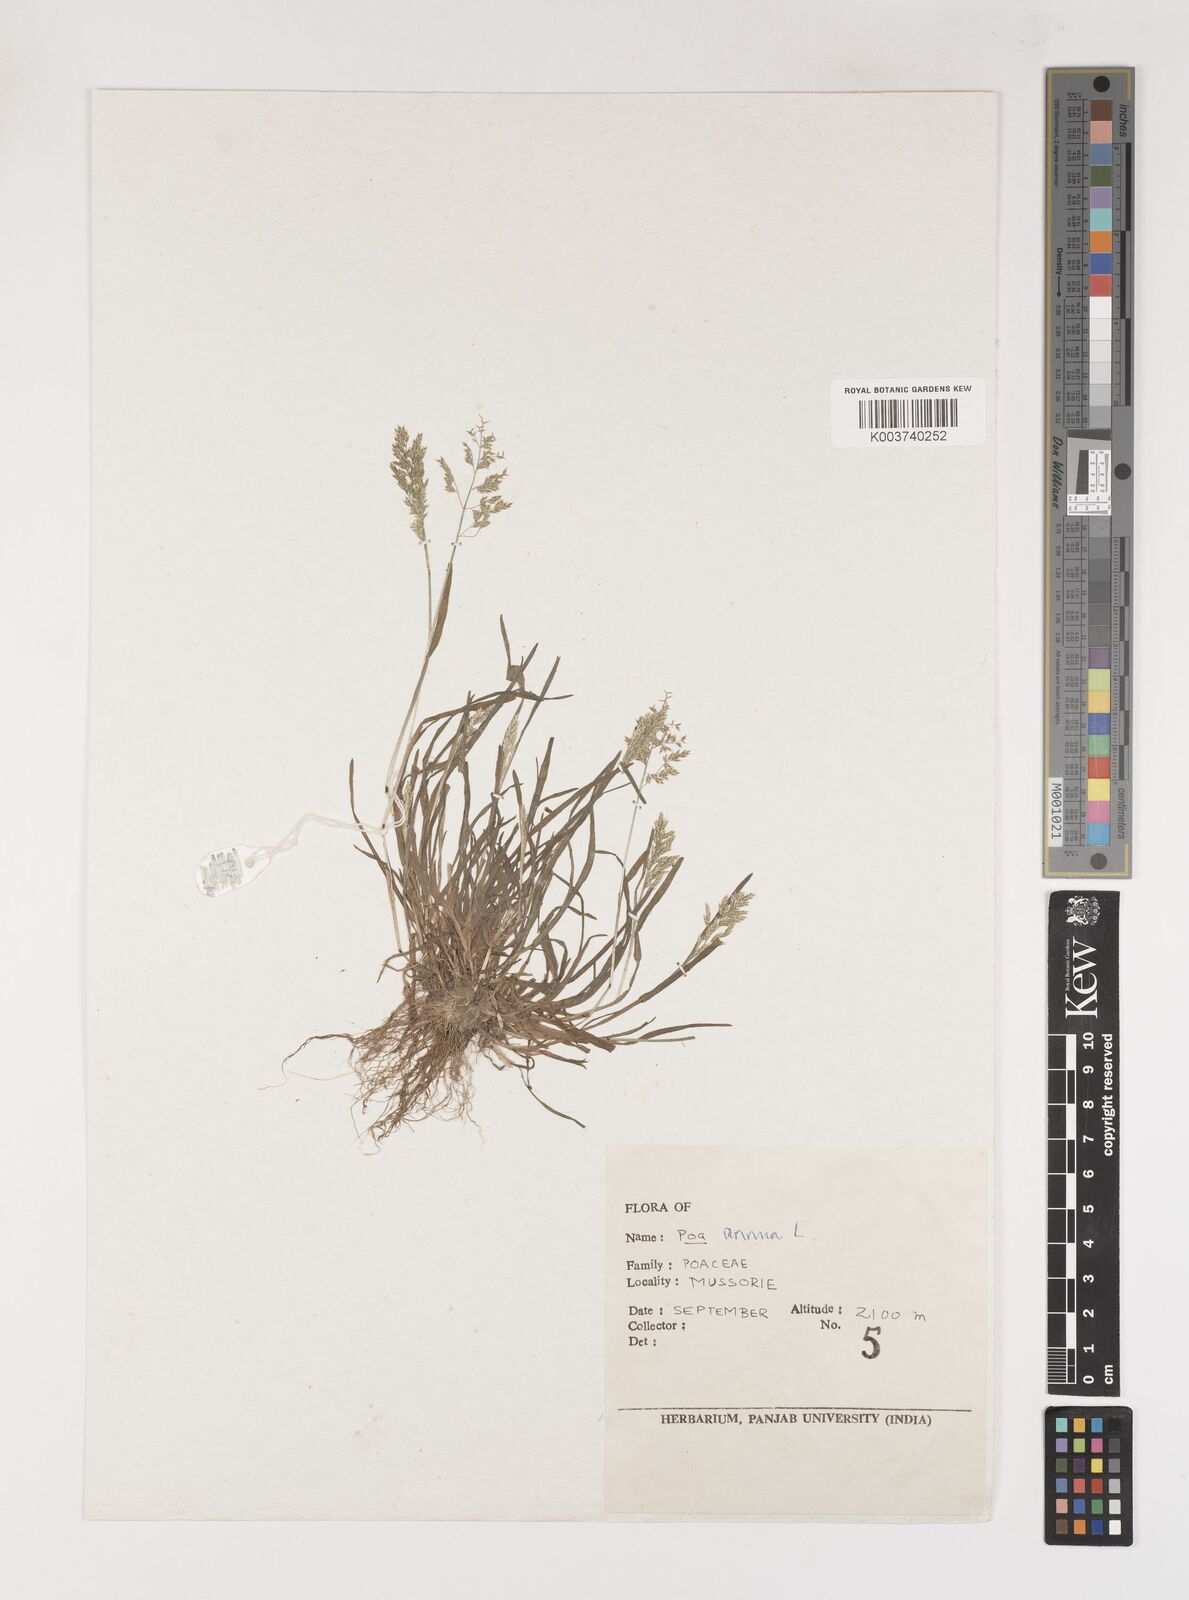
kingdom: Plantae
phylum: Tracheophyta
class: Liliopsida
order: Poales
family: Poaceae
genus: Poa
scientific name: Poa annua
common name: Annual bluegrass
